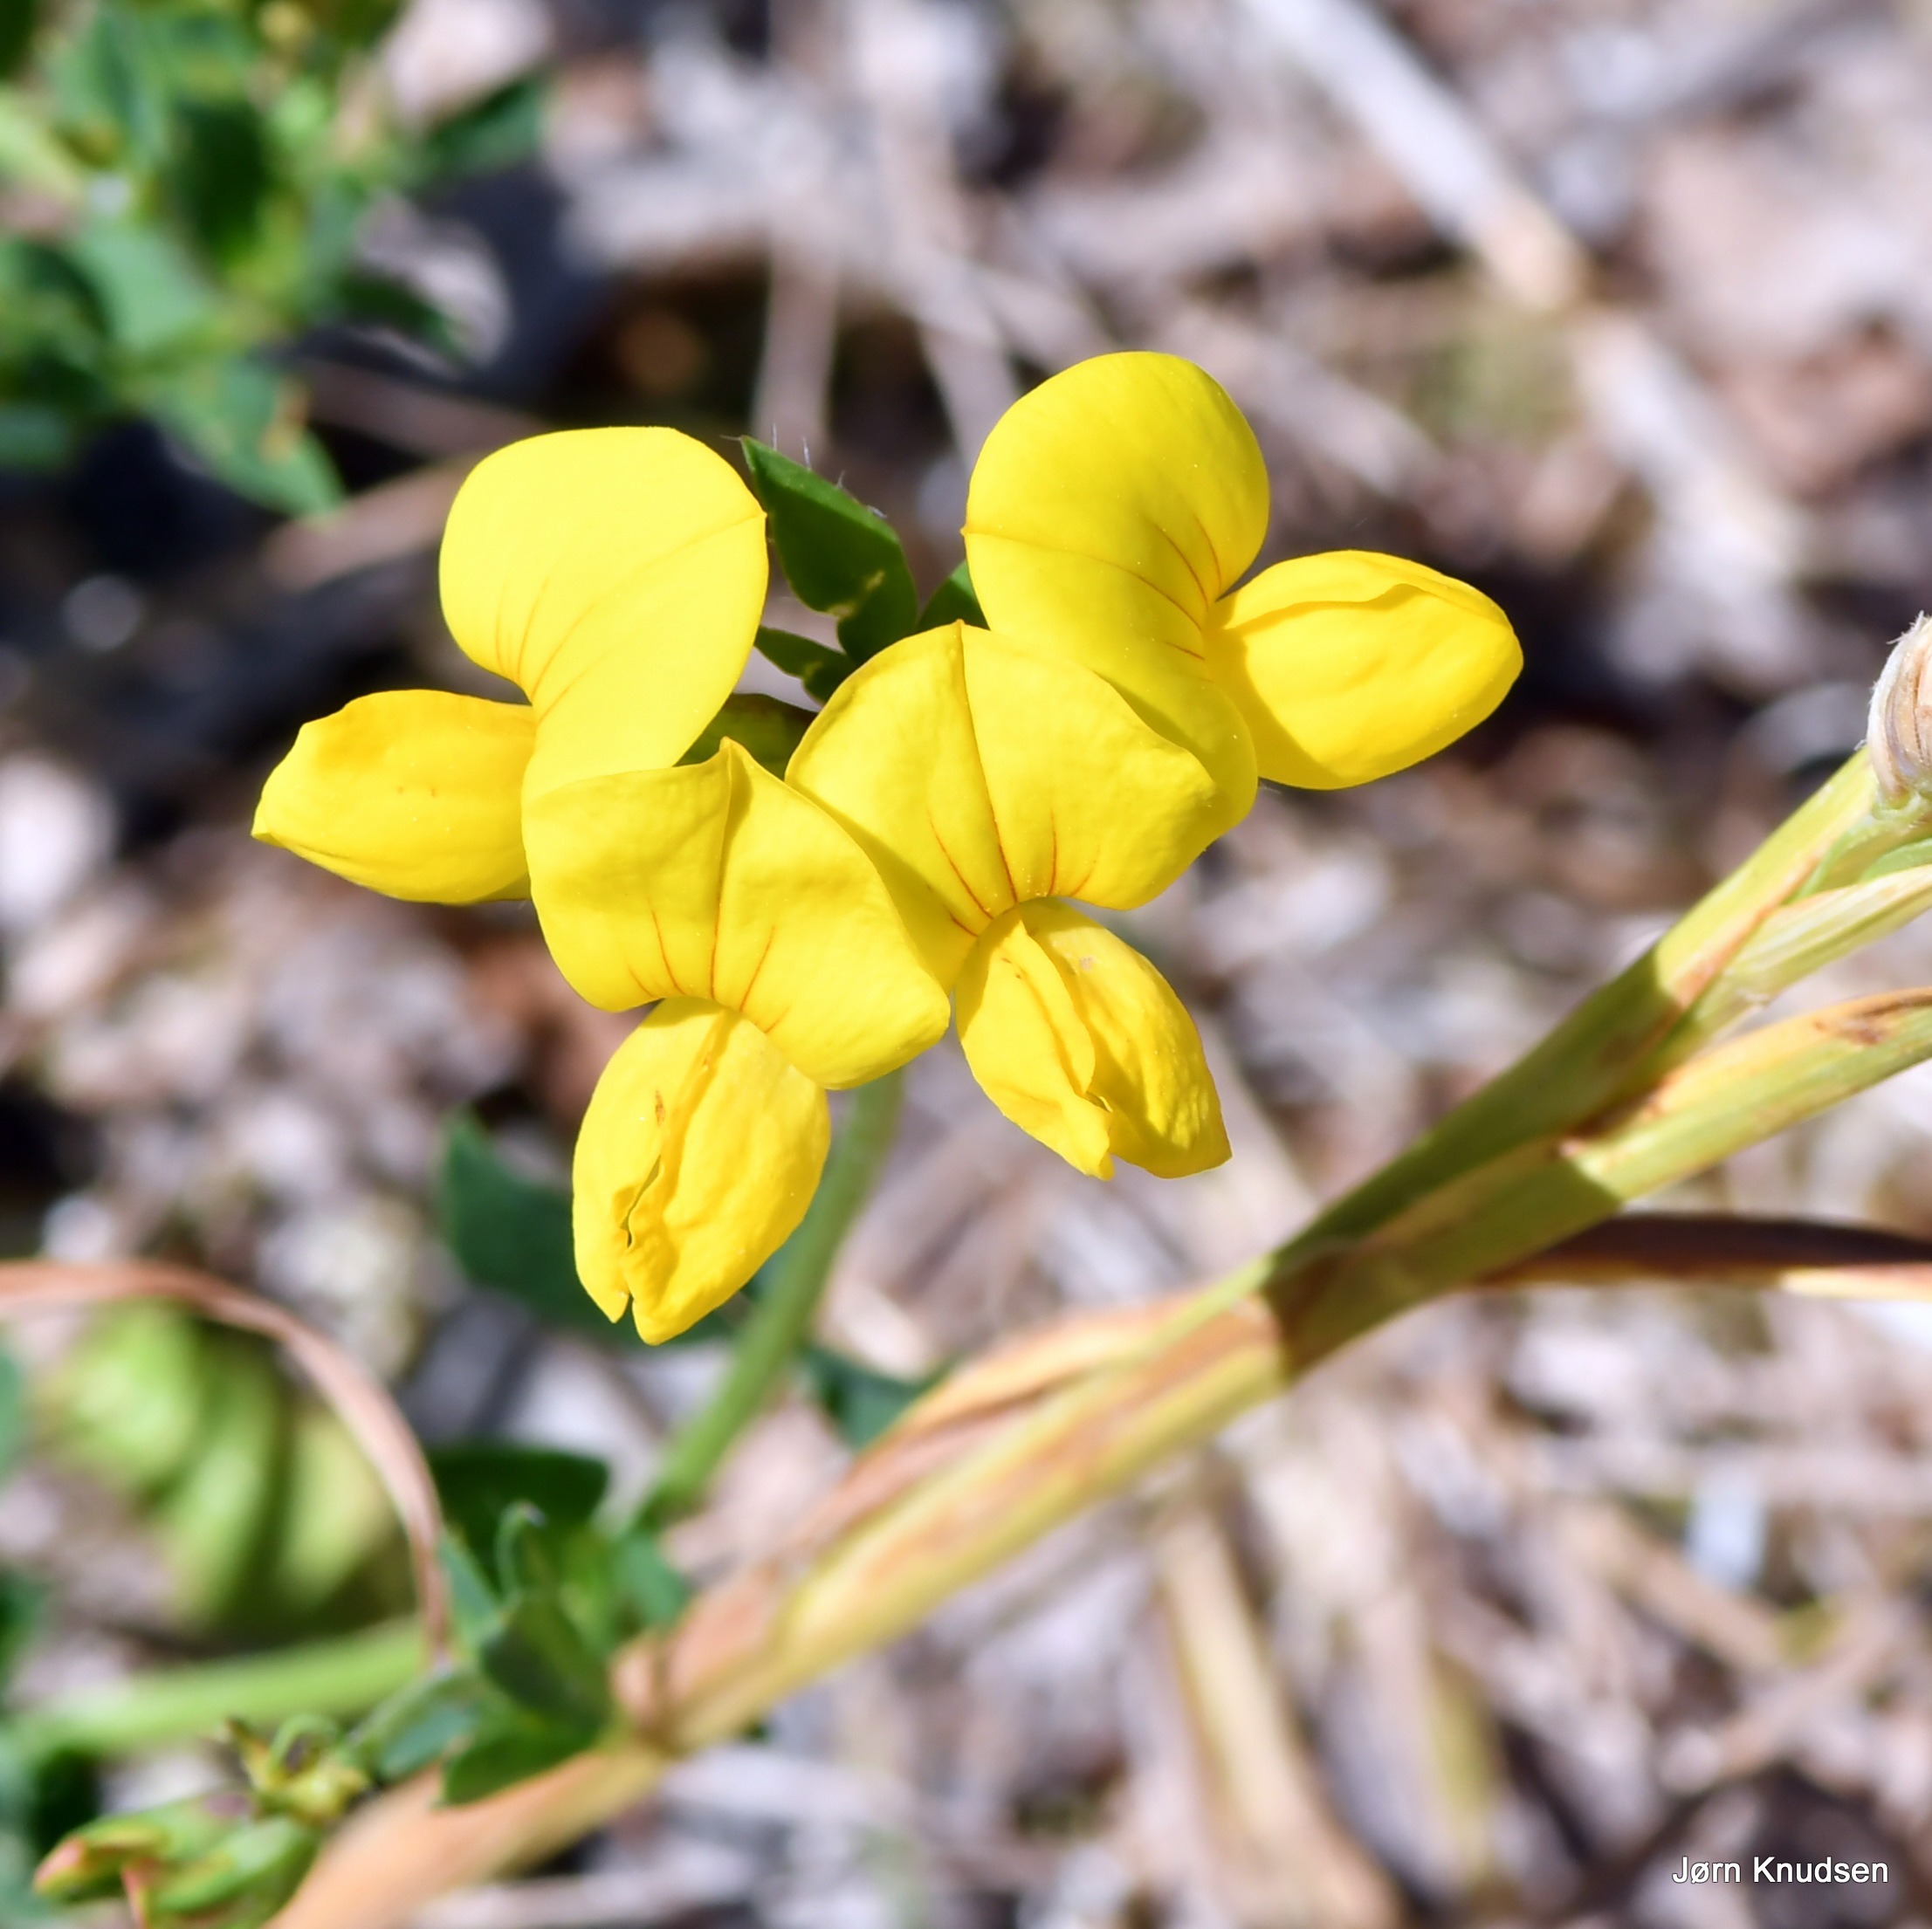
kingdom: Plantae
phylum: Tracheophyta
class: Magnoliopsida
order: Fabales
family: Fabaceae
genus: Lotus
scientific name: Lotus corniculatus
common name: Almindelig kællingetand
